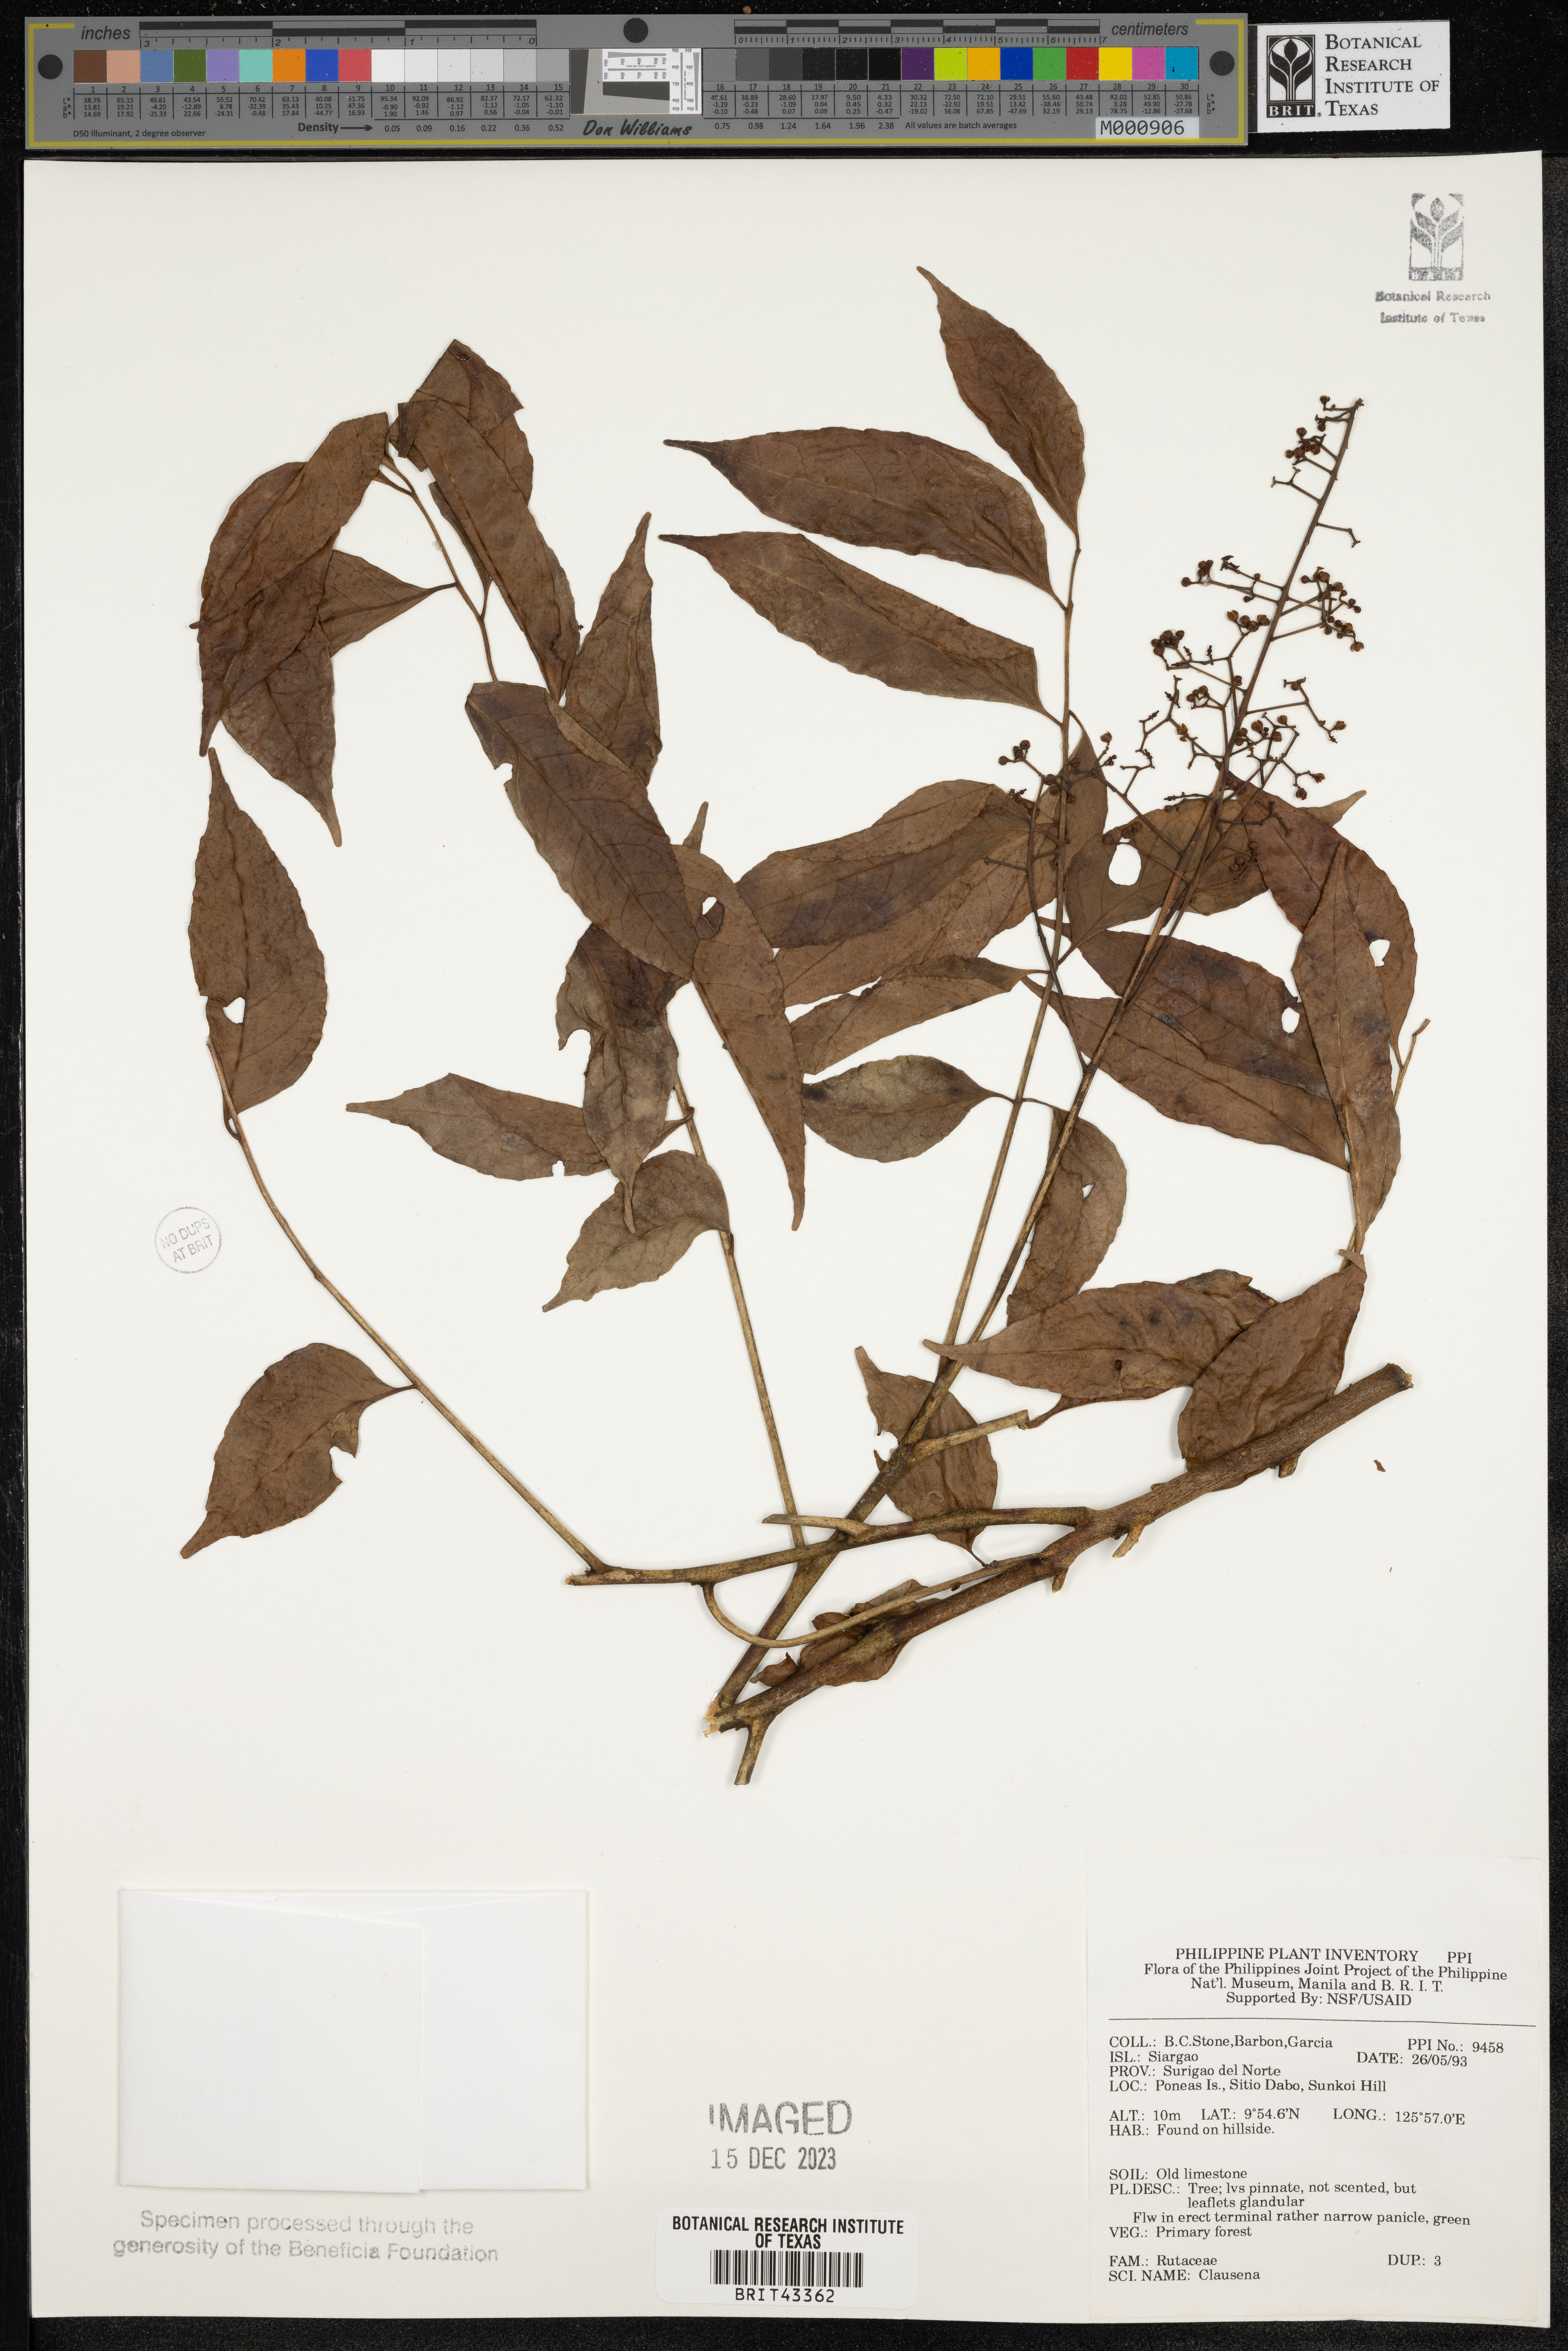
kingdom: Plantae
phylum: Tracheophyta
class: Magnoliopsida
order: Sapindales
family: Rutaceae
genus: Clausena
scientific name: Clausena
